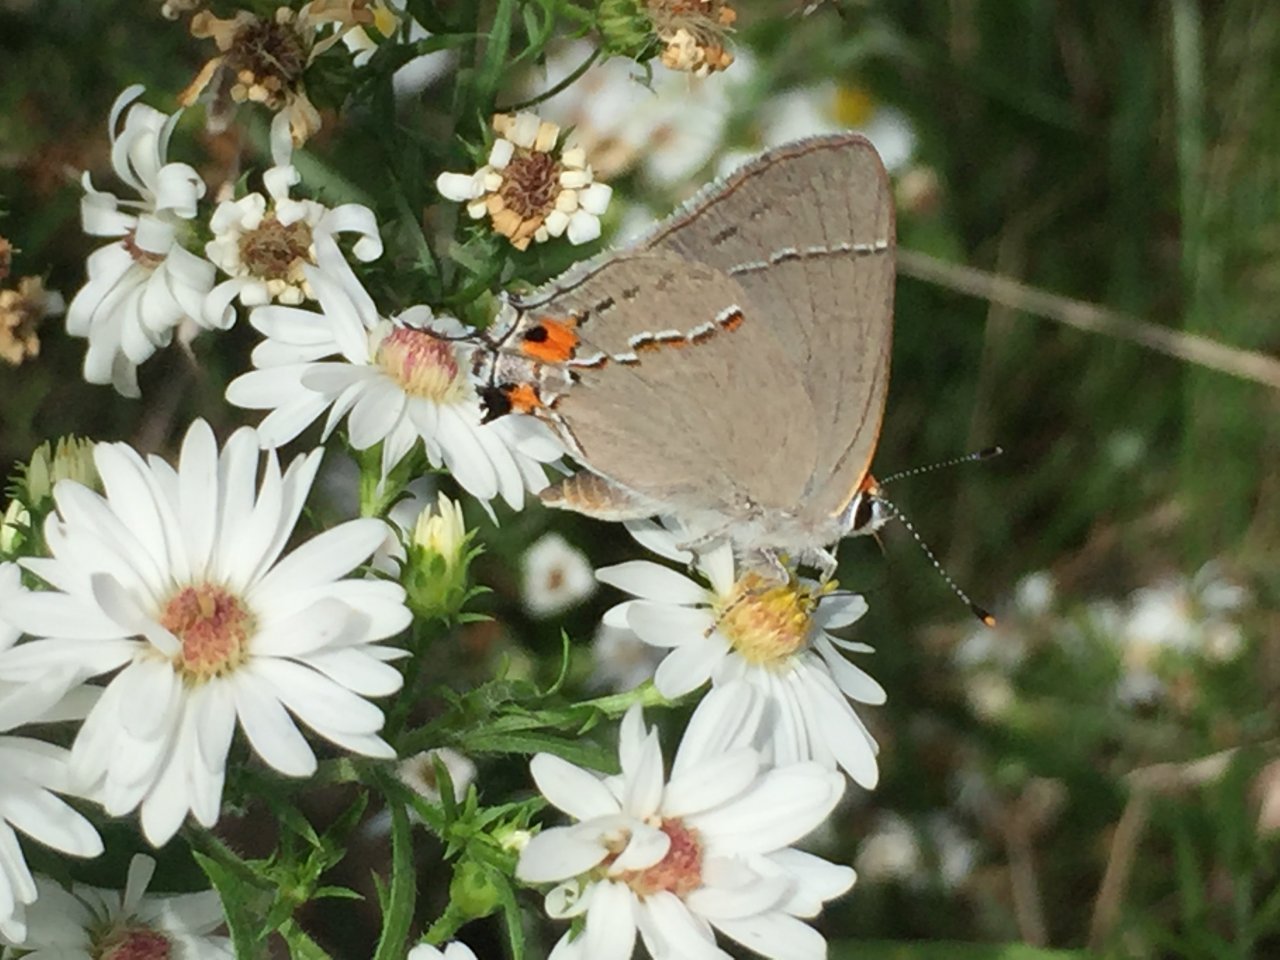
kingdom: Animalia
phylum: Arthropoda
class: Insecta
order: Lepidoptera
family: Lycaenidae
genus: Strymon
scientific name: Strymon melinus
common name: Gray Hairstreak
